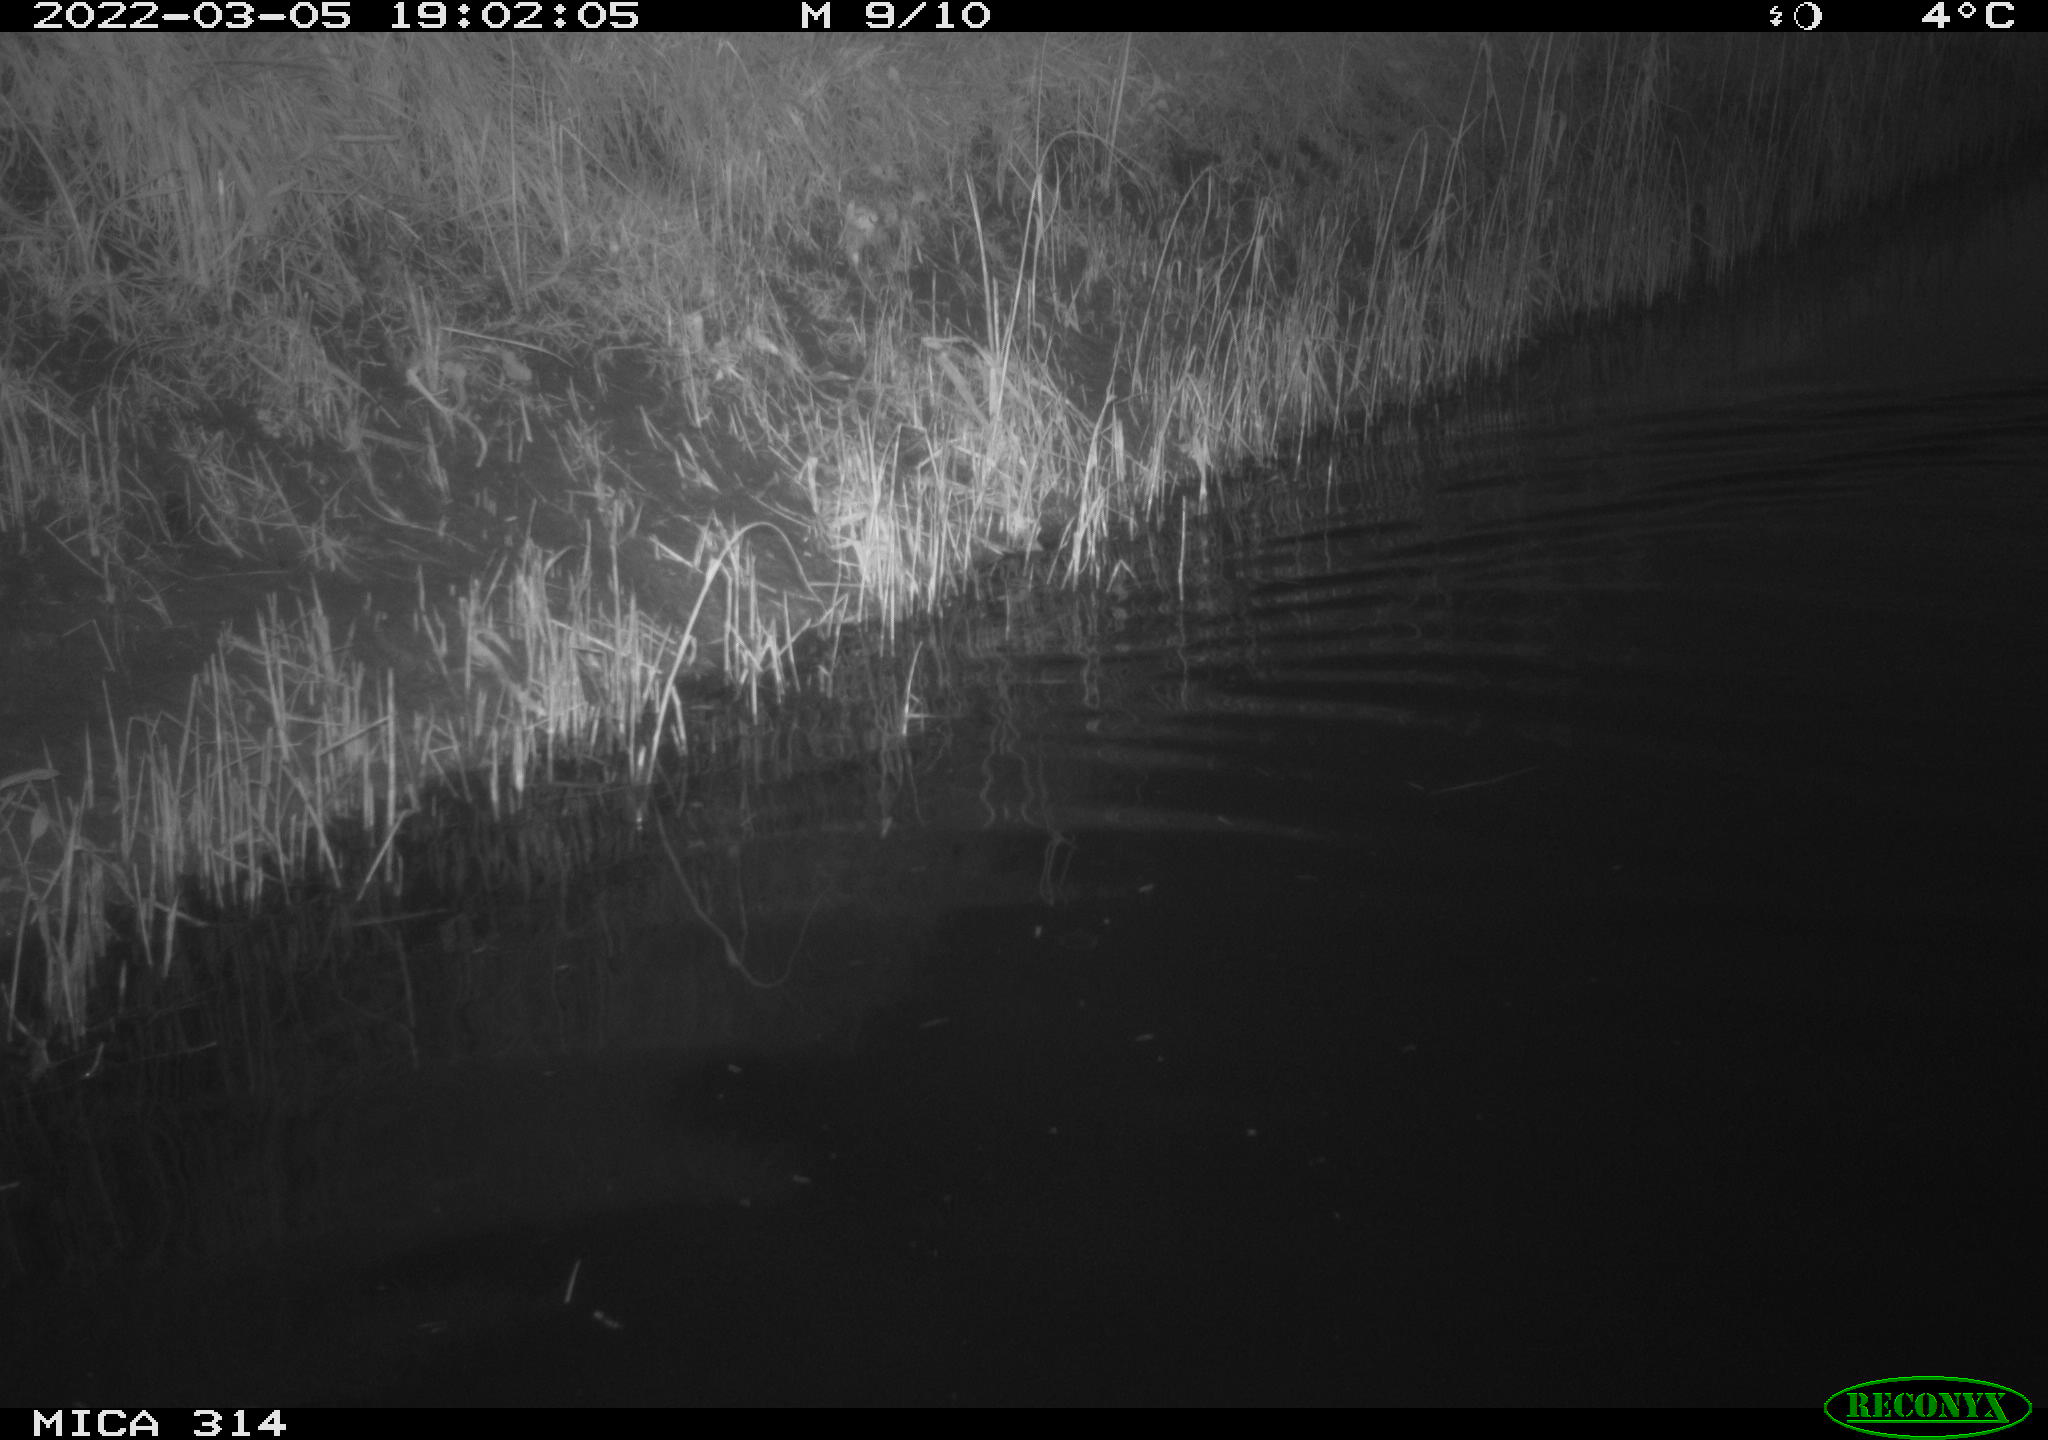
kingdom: Animalia
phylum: Chordata
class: Aves
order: Anseriformes
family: Anatidae
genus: Anas
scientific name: Anas platyrhynchos
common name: Mallard
